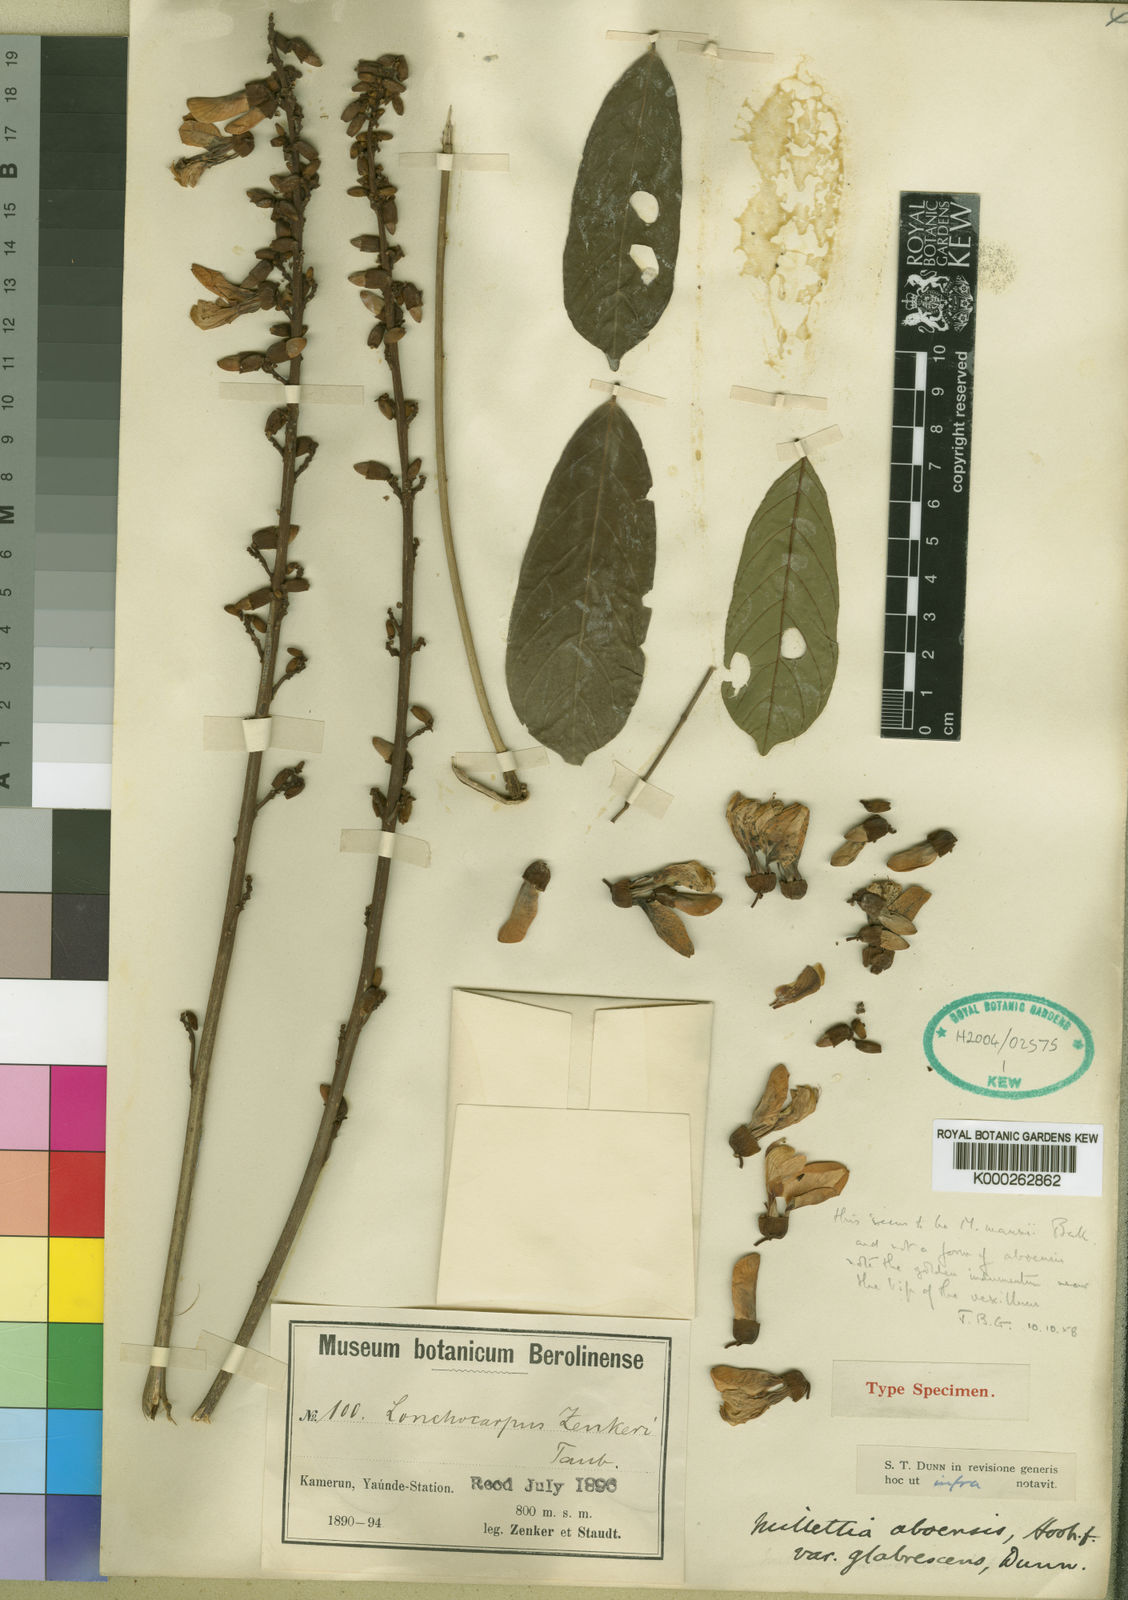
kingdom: Plantae
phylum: Tracheophyta
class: Magnoliopsida
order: Fabales
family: Fabaceae
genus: Millettia
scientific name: Millettia
